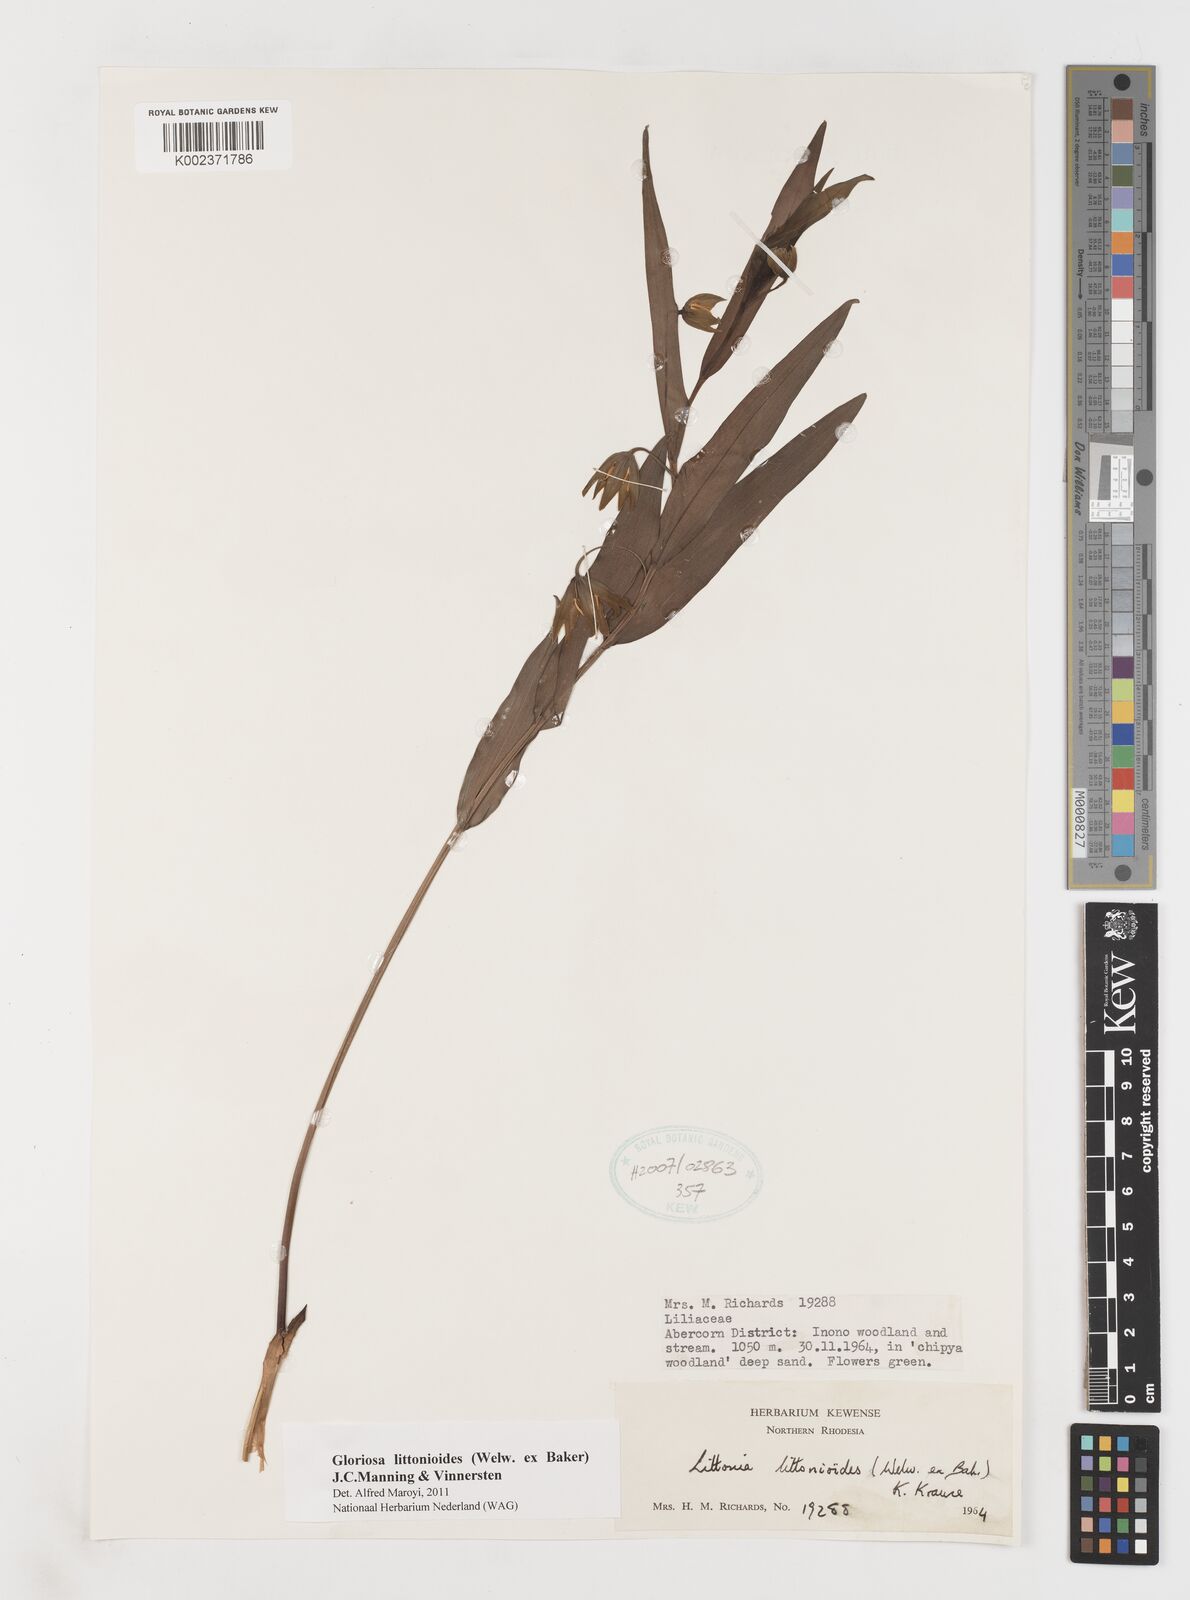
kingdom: Plantae
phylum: Tracheophyta
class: Liliopsida
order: Liliales
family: Colchicaceae
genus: Gloriosa
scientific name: Gloriosa littonioides
